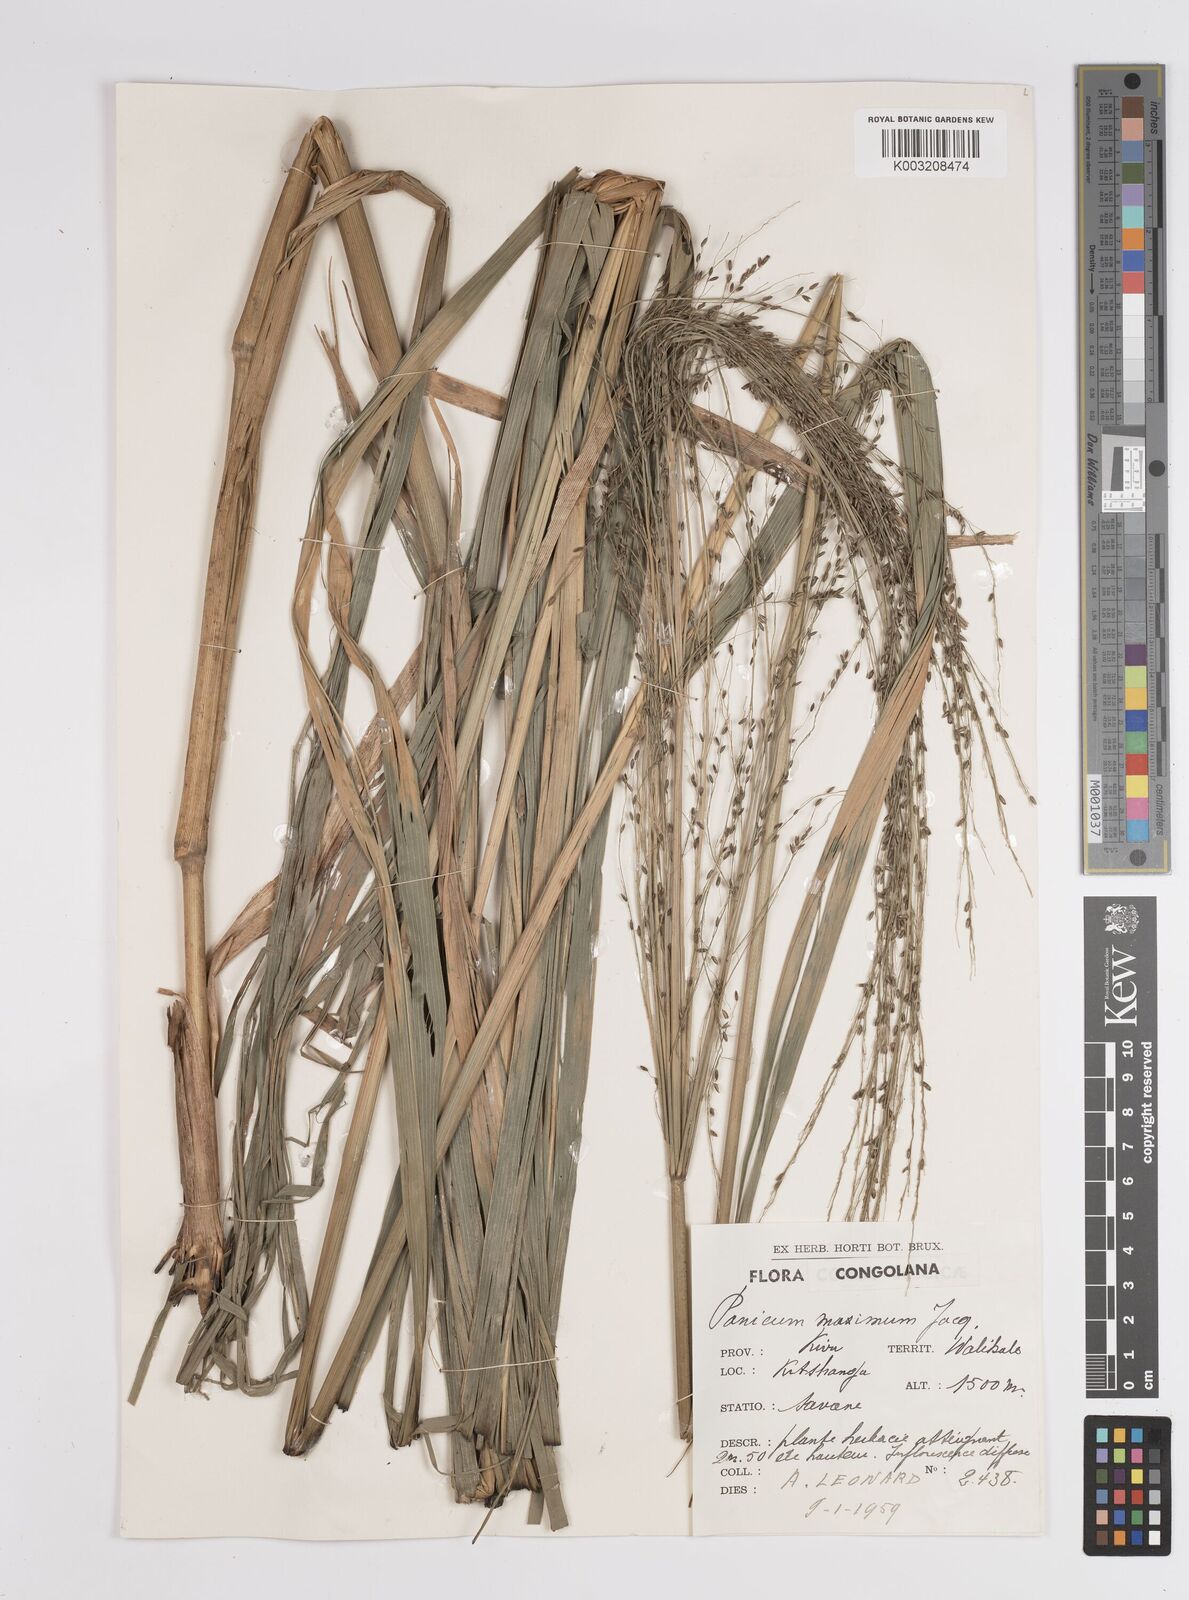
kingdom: Plantae
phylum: Tracheophyta
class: Liliopsida
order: Poales
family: Poaceae
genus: Megathyrsus
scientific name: Megathyrsus maximus
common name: Guineagrass
